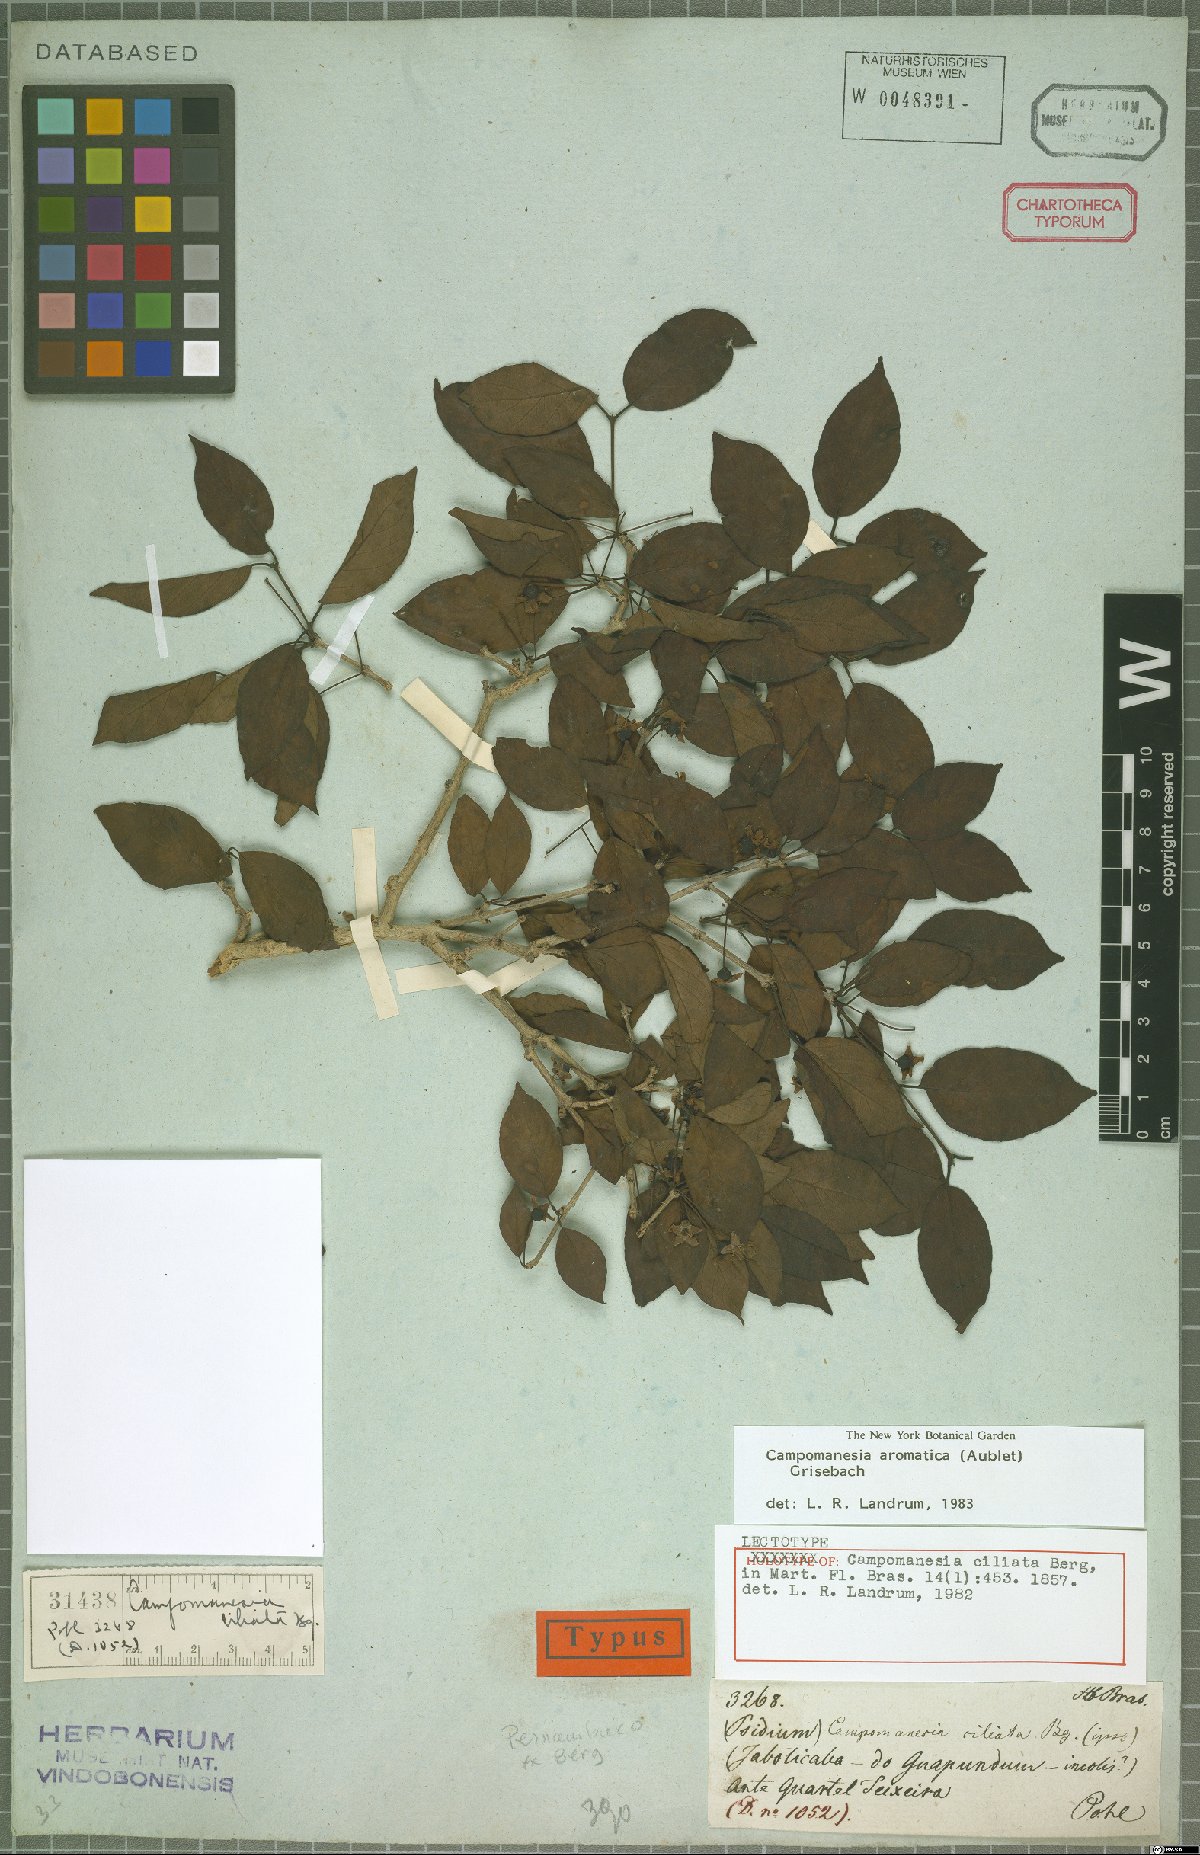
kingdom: Plantae
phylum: Tracheophyta
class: Magnoliopsida
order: Myrtales
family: Myrtaceae
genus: Campomanesia
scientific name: Campomanesia aromatica
